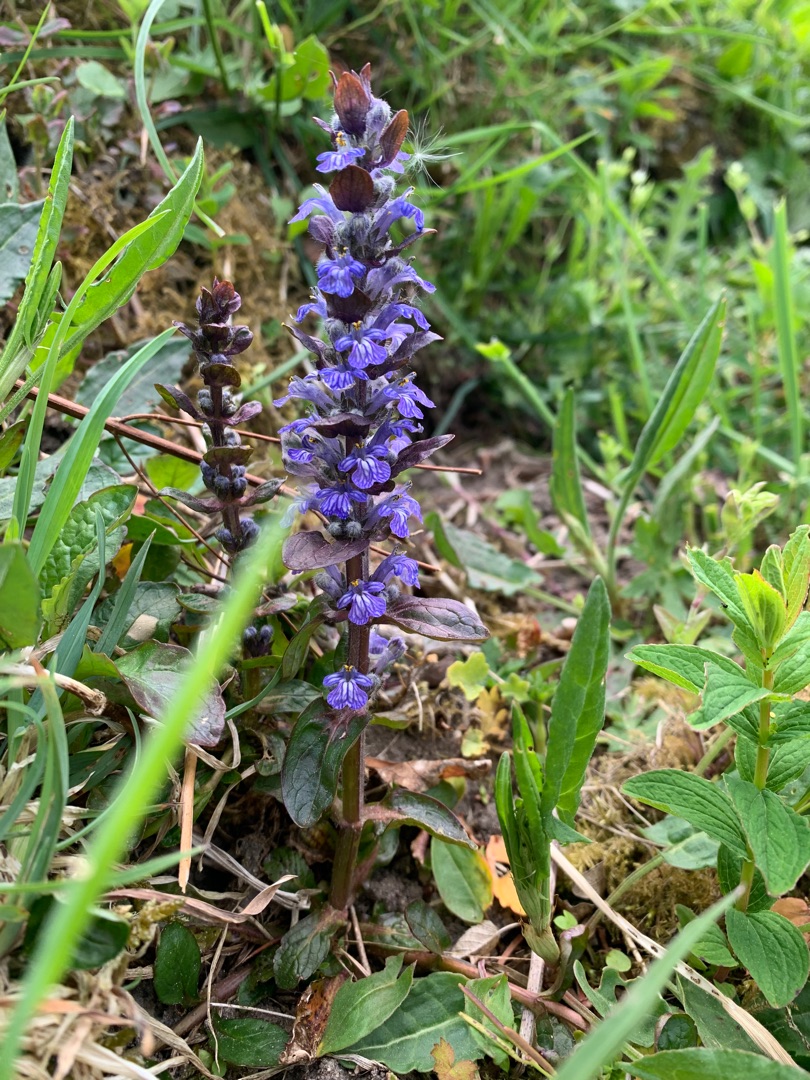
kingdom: Plantae
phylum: Tracheophyta
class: Magnoliopsida
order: Lamiales
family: Lamiaceae
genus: Ajuga
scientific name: Ajuga reptans
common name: Krybende læbeløs
